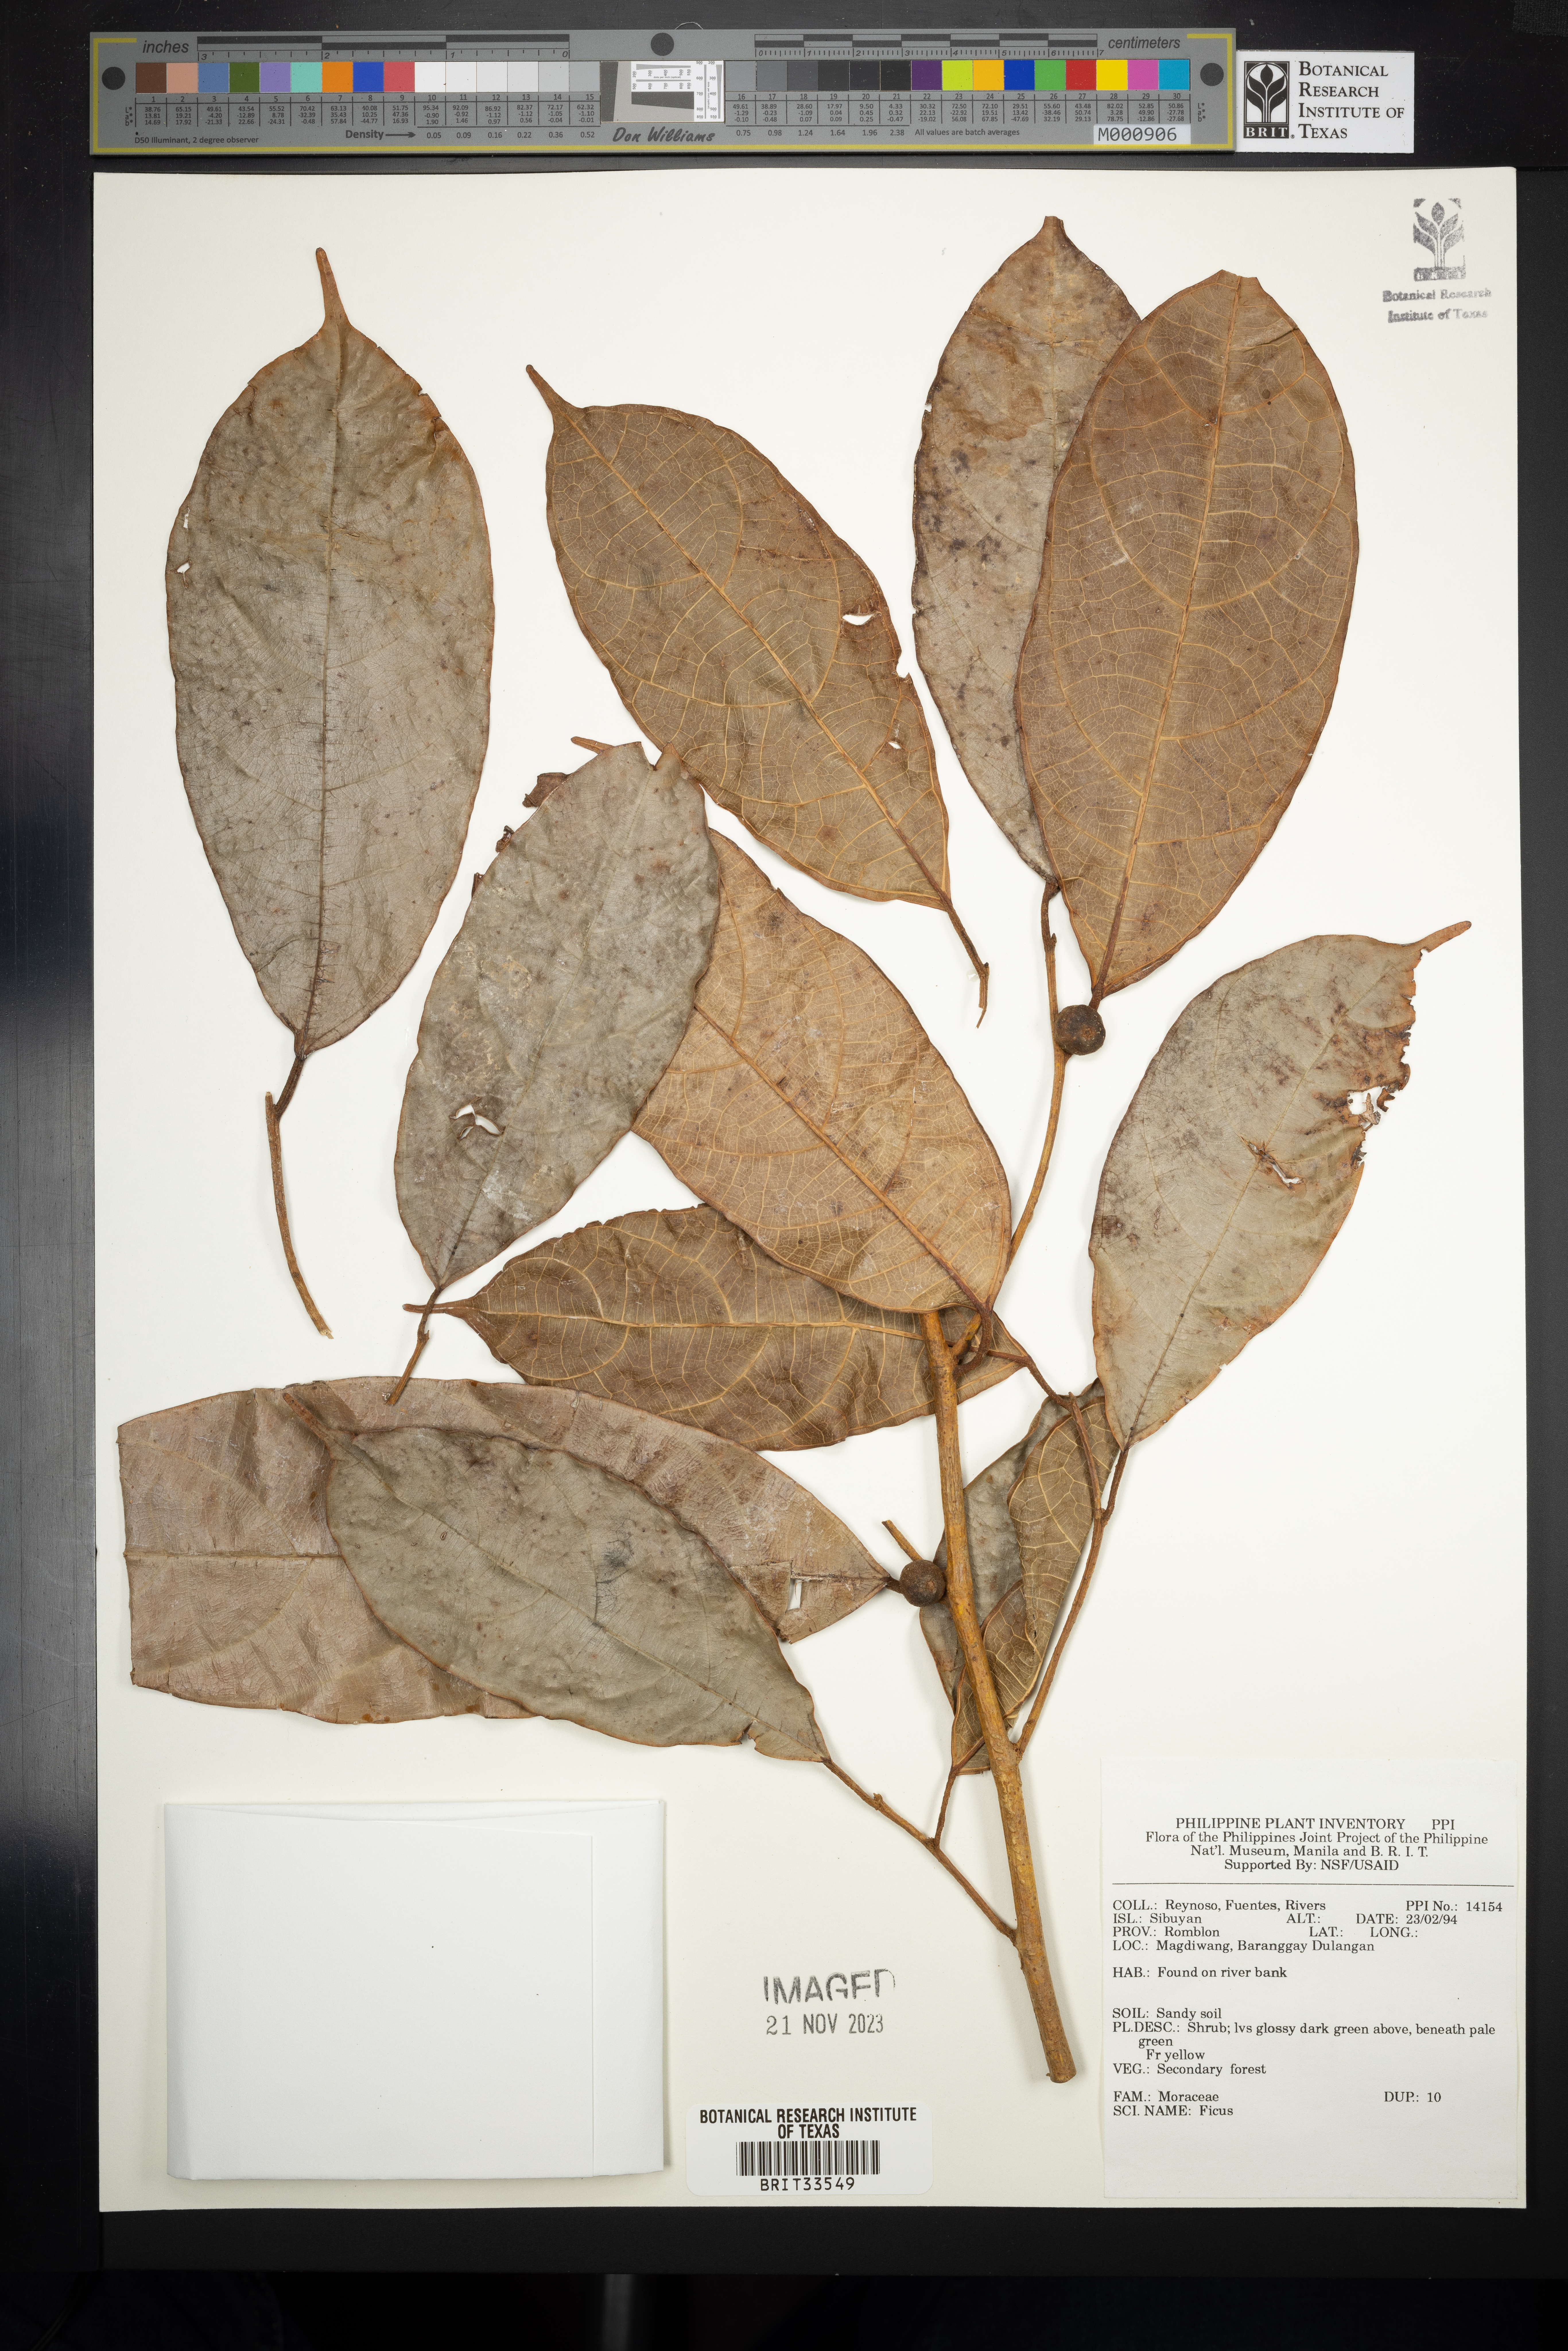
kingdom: Plantae
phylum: Tracheophyta
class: Magnoliopsida
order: Rosales
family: Moraceae
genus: Ficus
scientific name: Ficus
